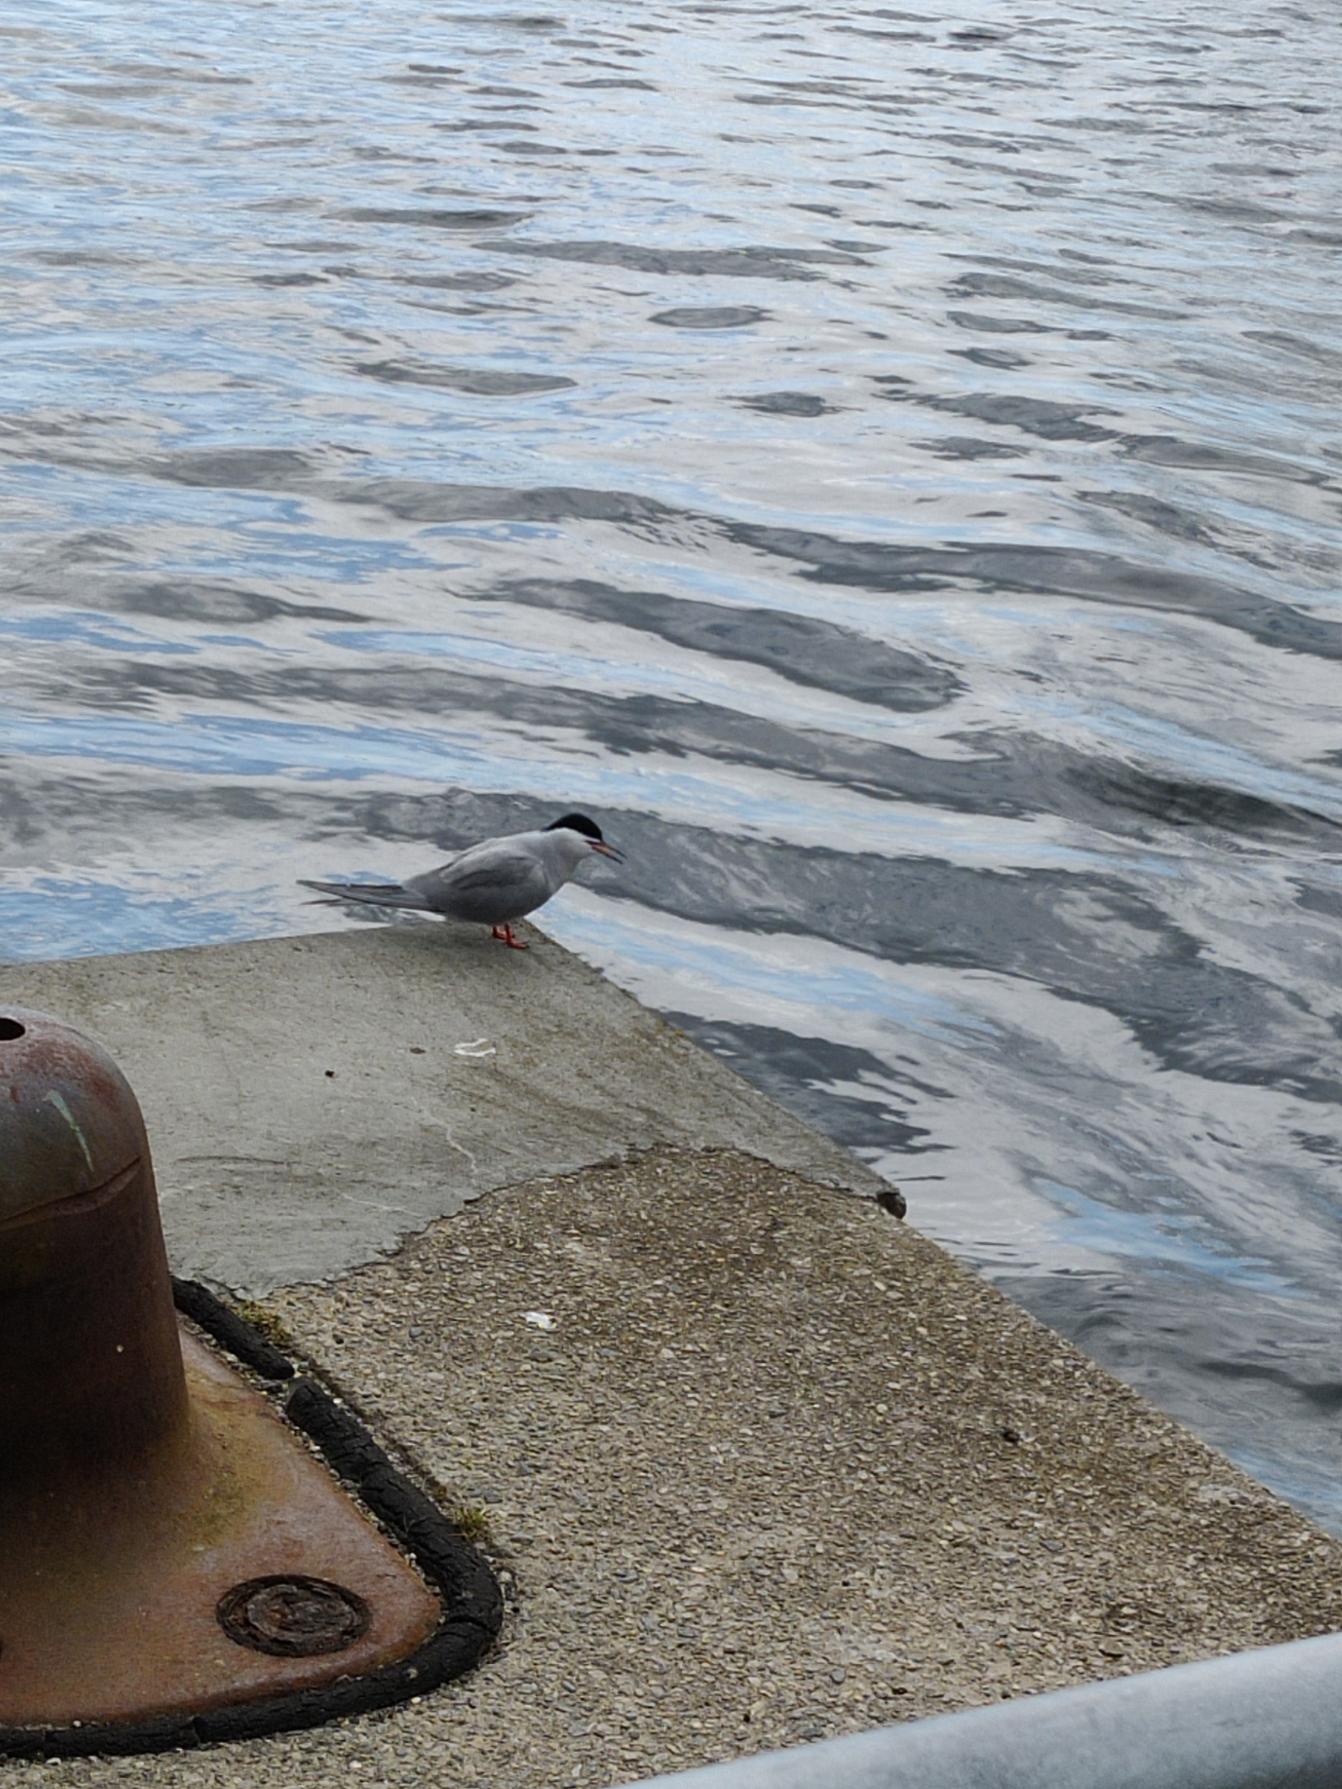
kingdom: Animalia
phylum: Chordata
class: Aves
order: Charadriiformes
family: Laridae
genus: Sterna
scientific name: Sterna hirundo
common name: Fjordterne
